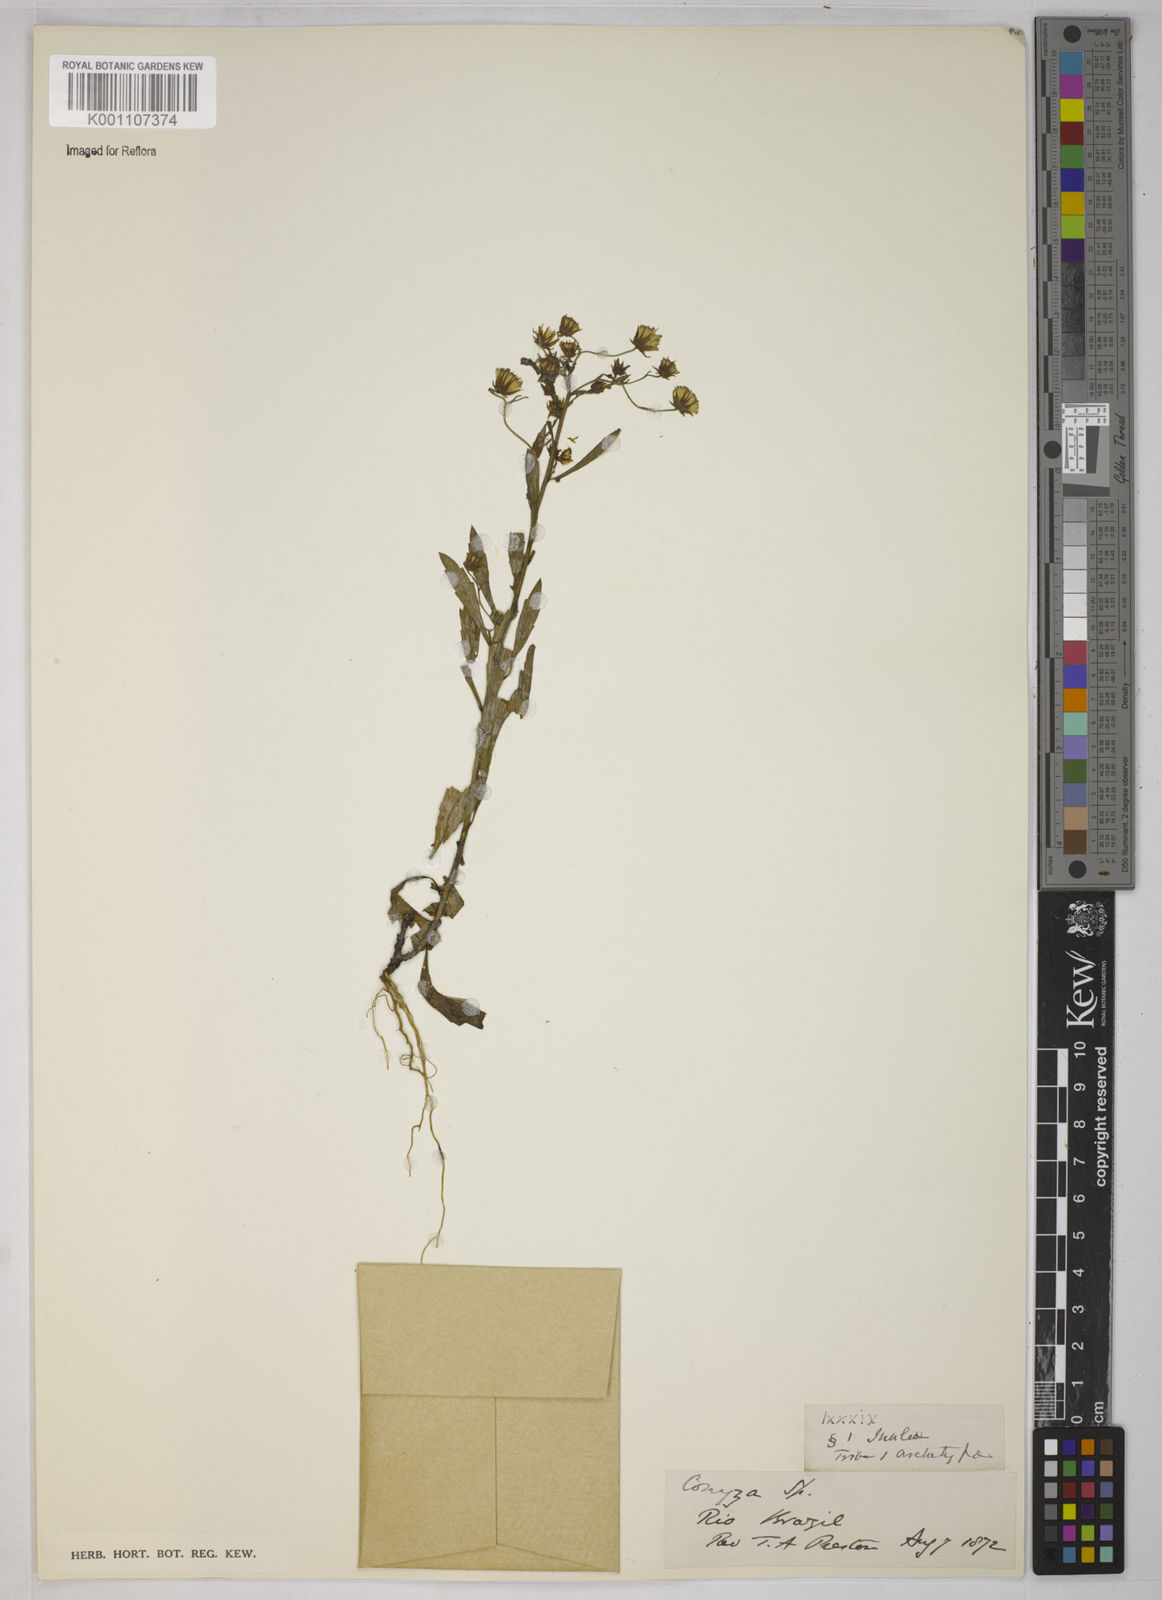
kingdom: Plantae
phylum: Tracheophyta
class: Magnoliopsida
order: Asterales
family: Asteraceae
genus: Erigeron
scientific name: Erigeron sumatrensis
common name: Daisy
